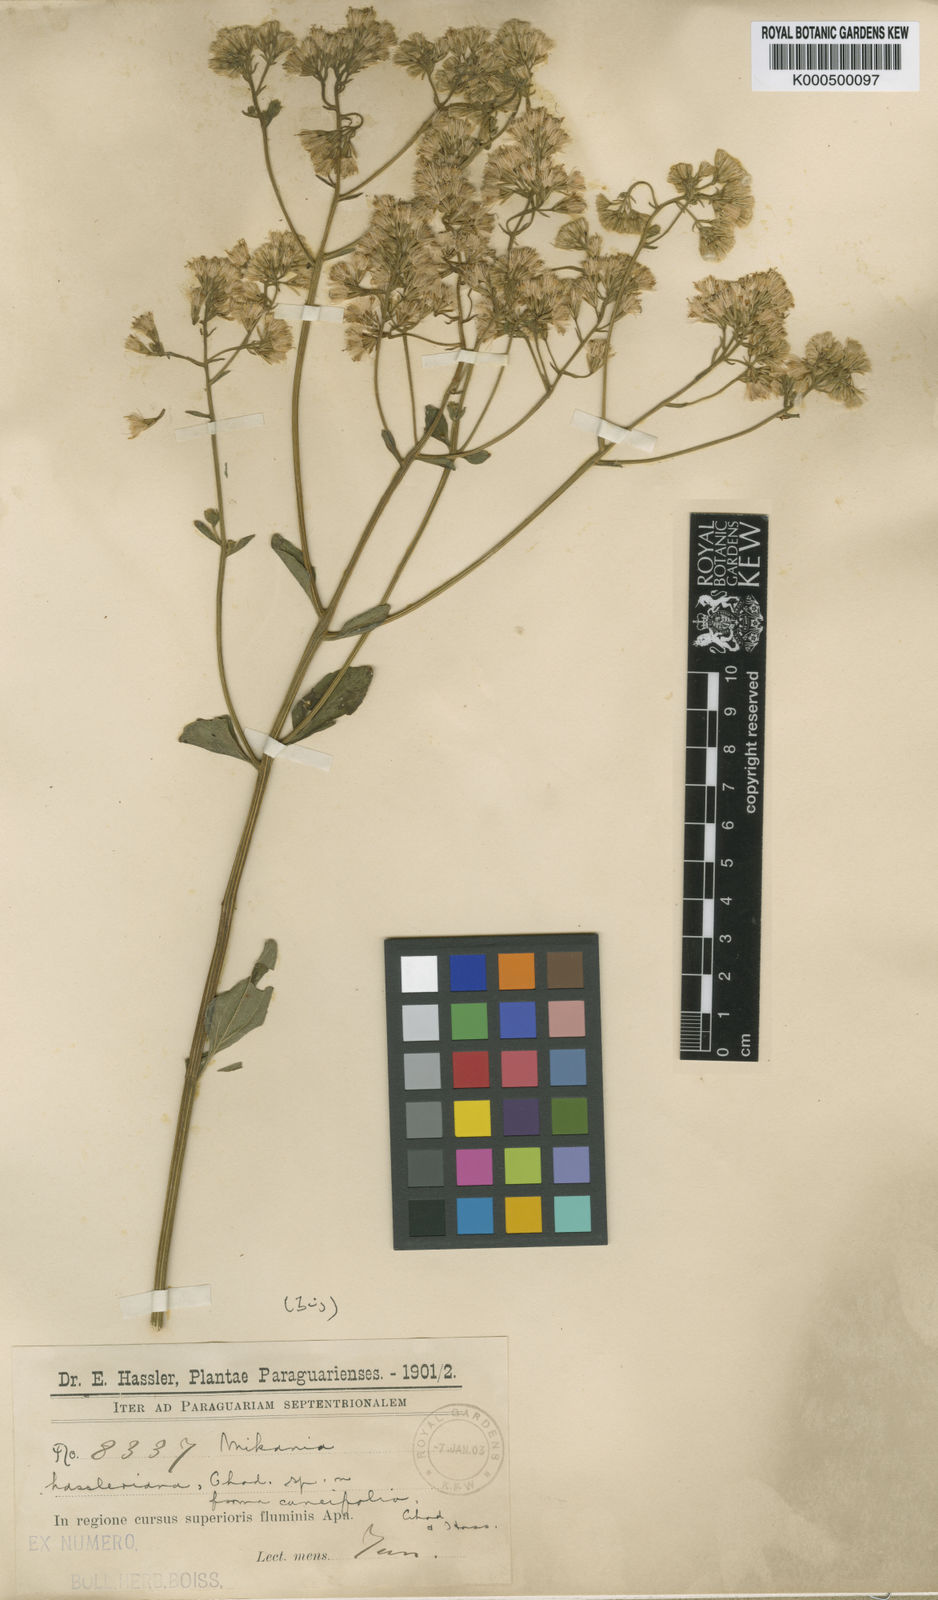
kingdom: Plantae
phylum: Tracheophyta
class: Magnoliopsida
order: Asterales
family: Asteraceae
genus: Mikania
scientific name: Mikania fulva
